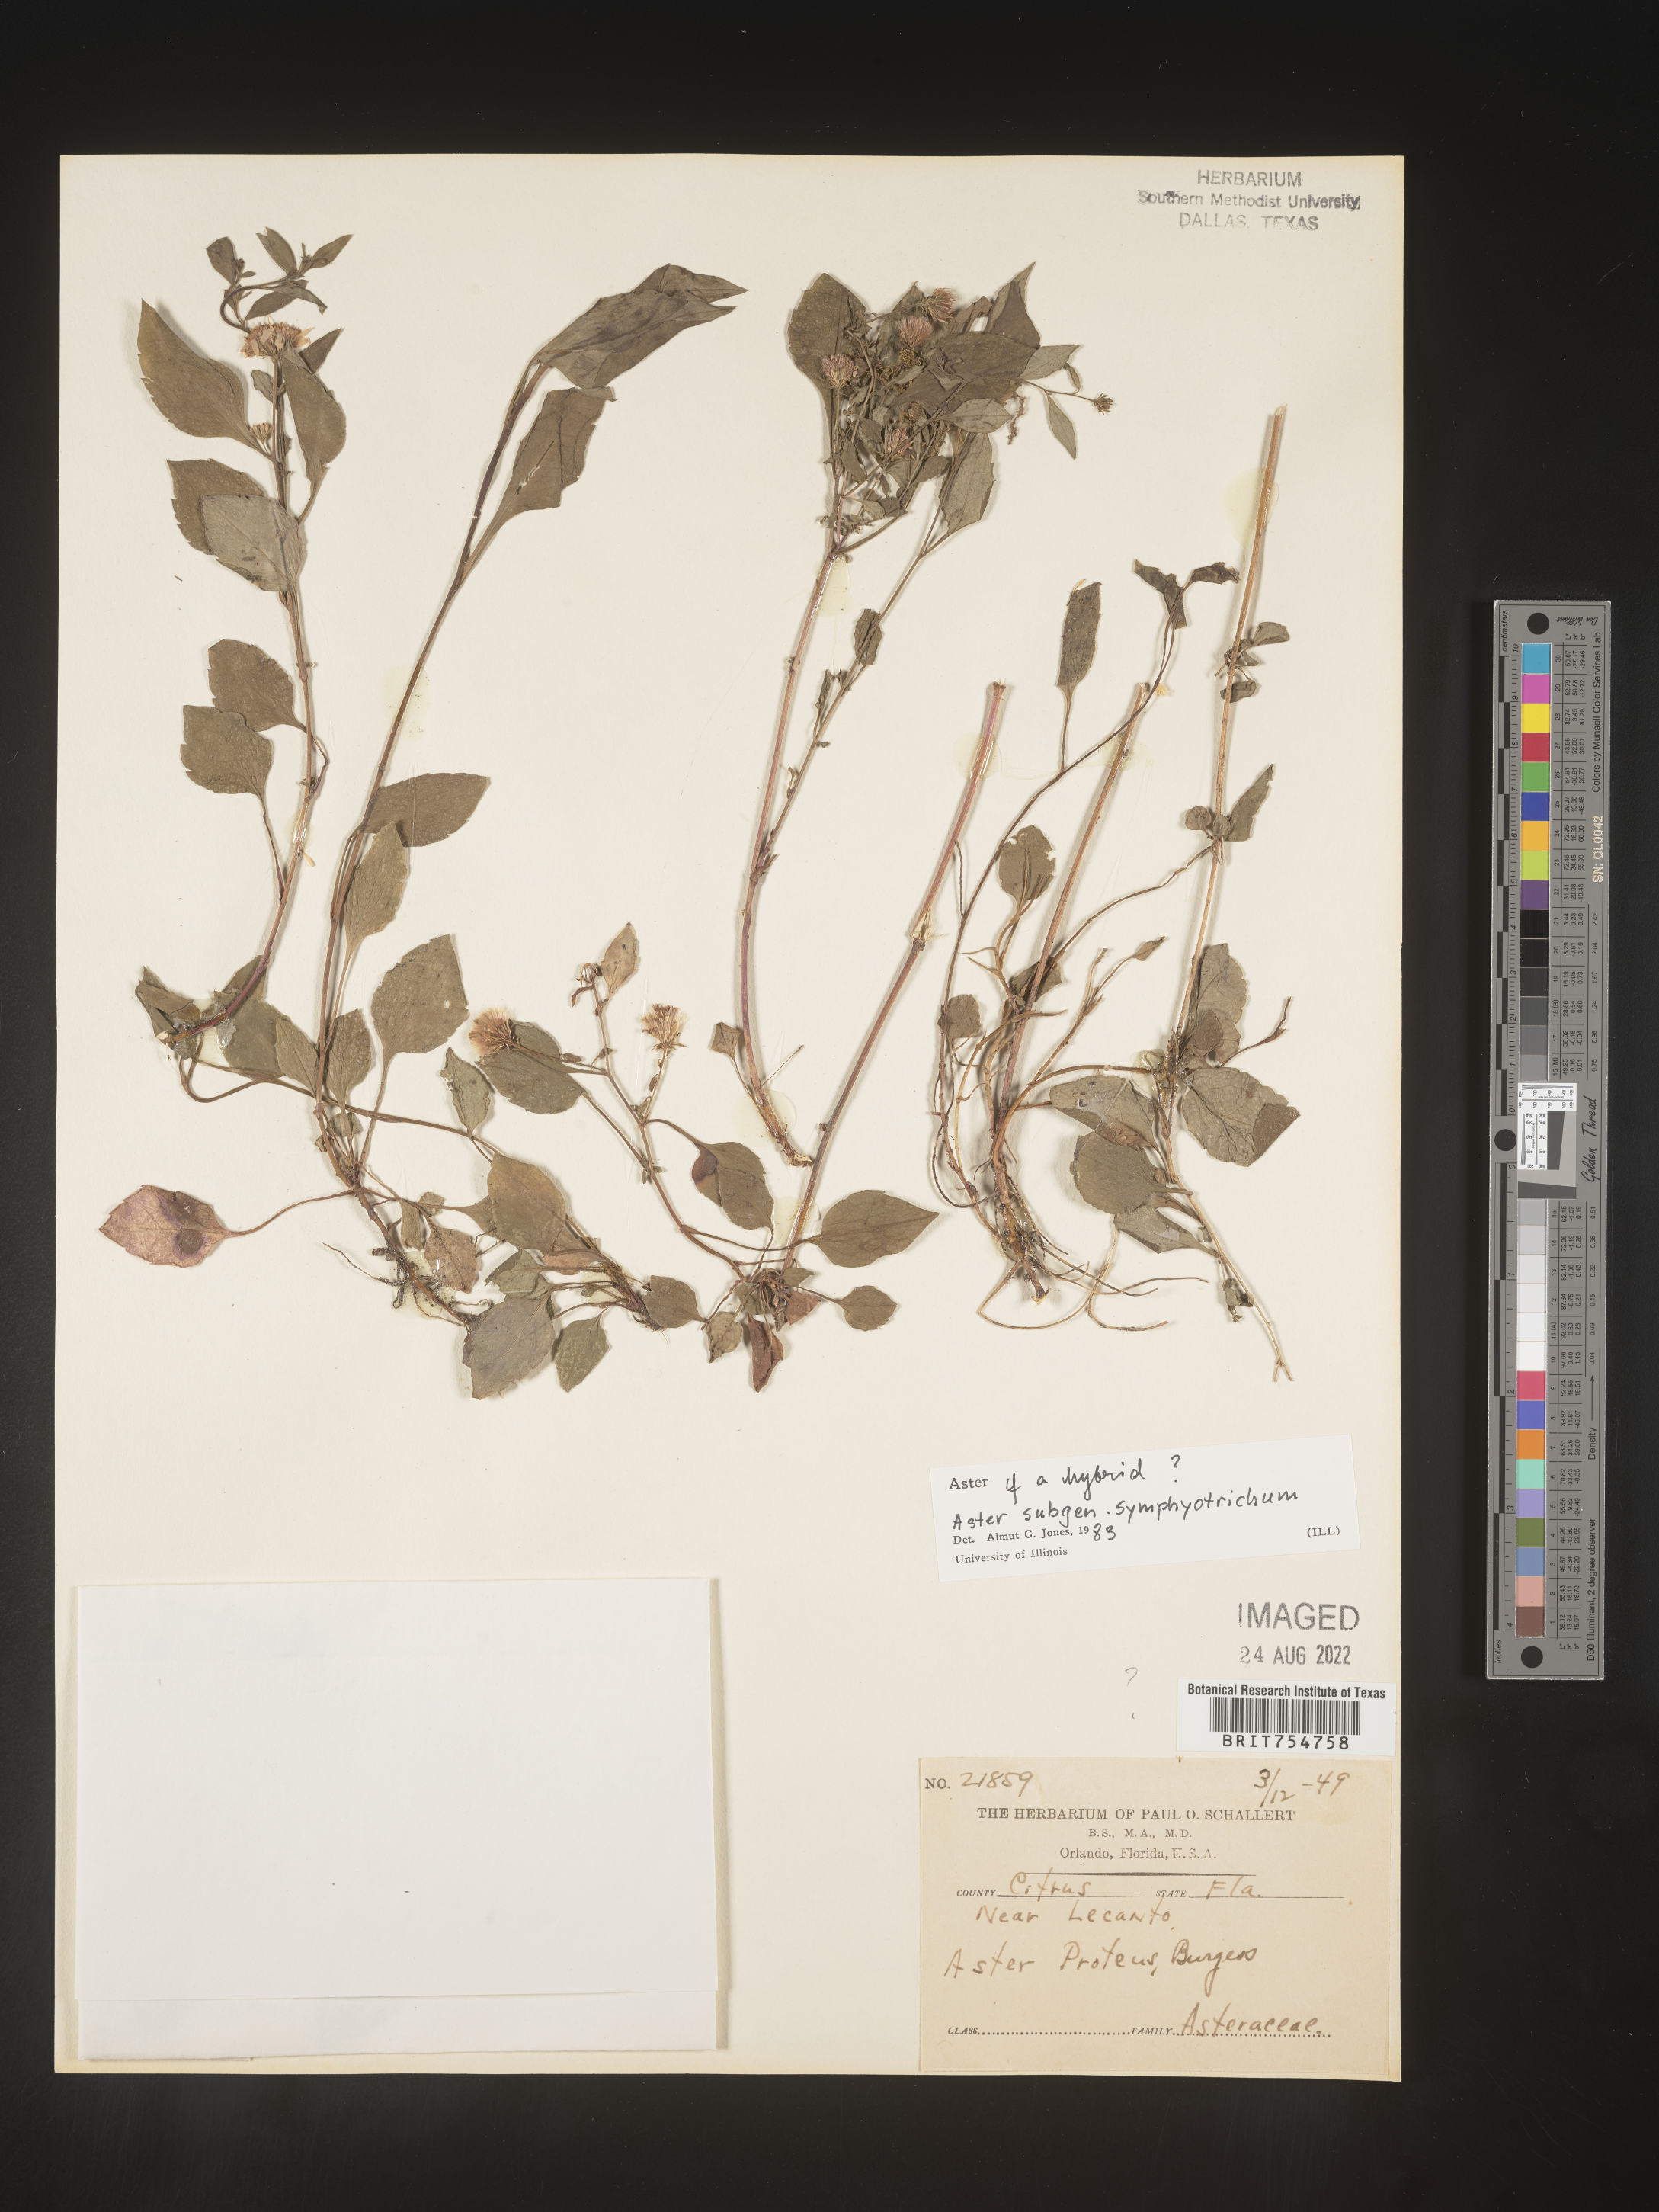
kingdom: Plantae
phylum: Tracheophyta
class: Magnoliopsida
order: Asterales
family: Asteraceae
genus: Symphyotrichum
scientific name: Symphyotrichum
